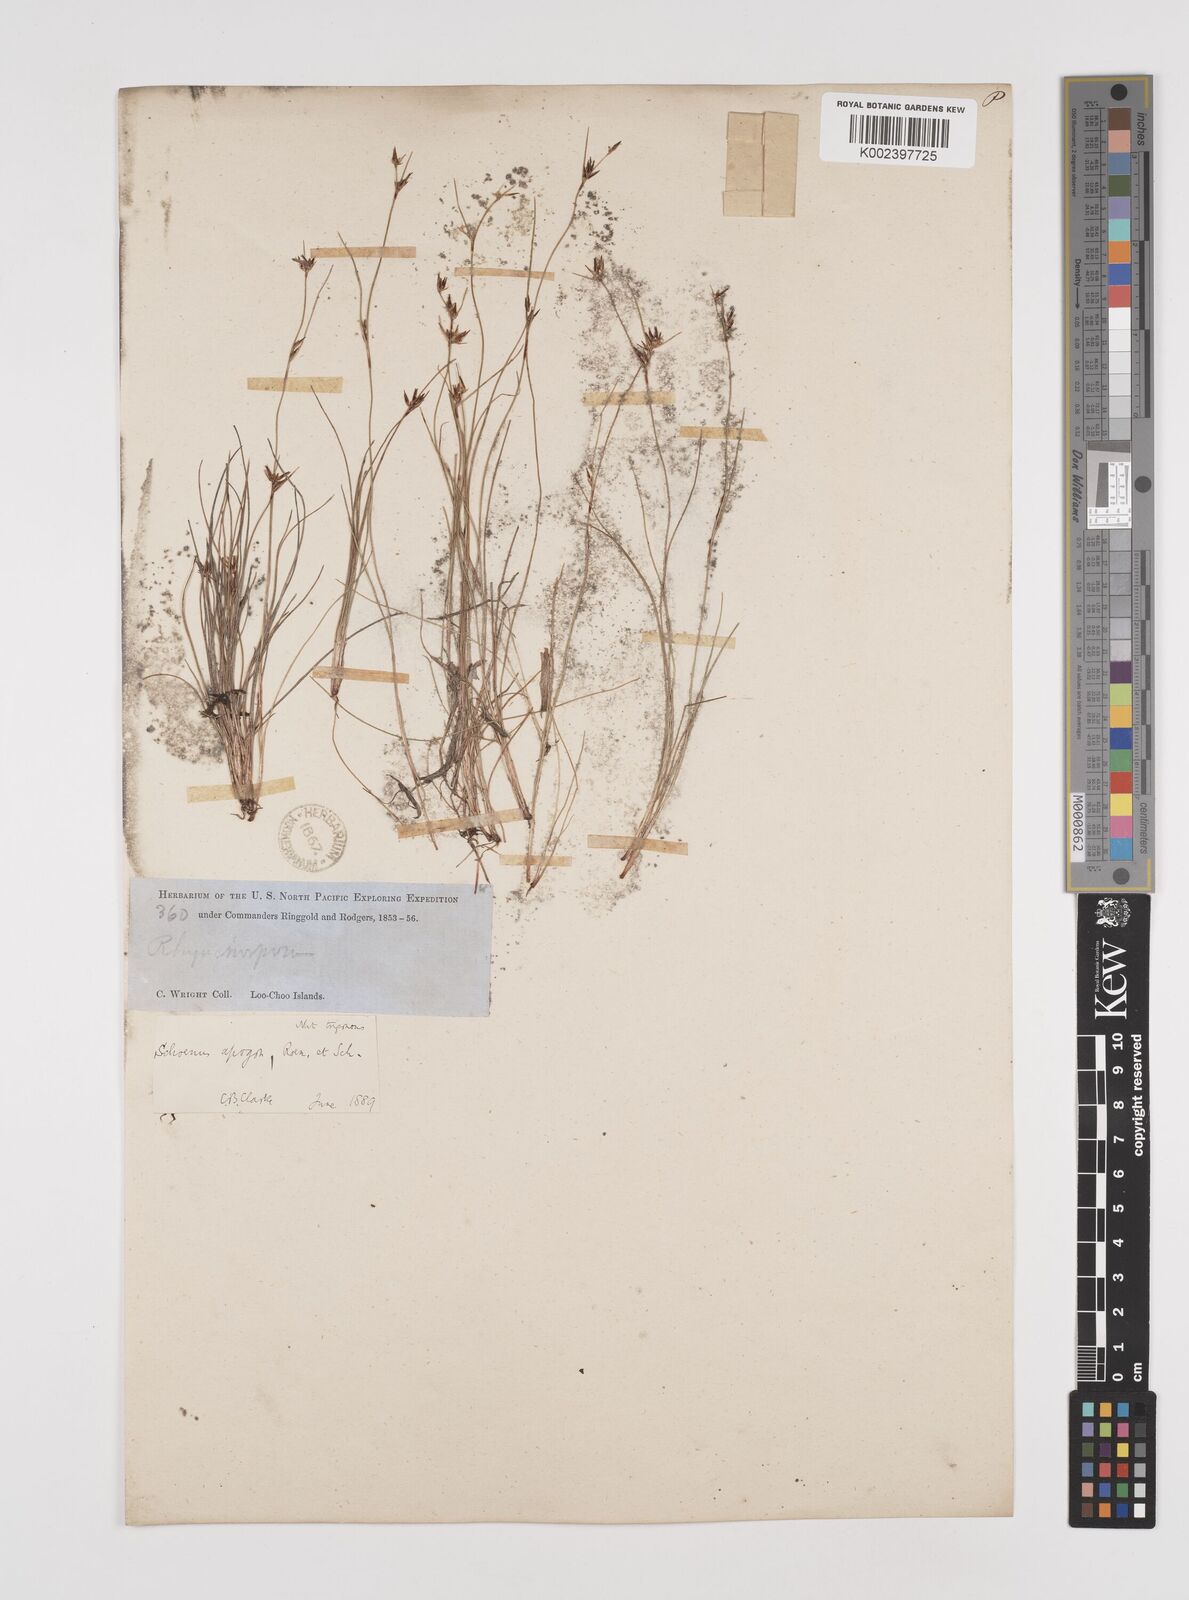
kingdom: Plantae
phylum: Tracheophyta
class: Liliopsida
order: Poales
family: Cyperaceae
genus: Schoenus
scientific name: Schoenus apogon
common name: Smooth bogrush
